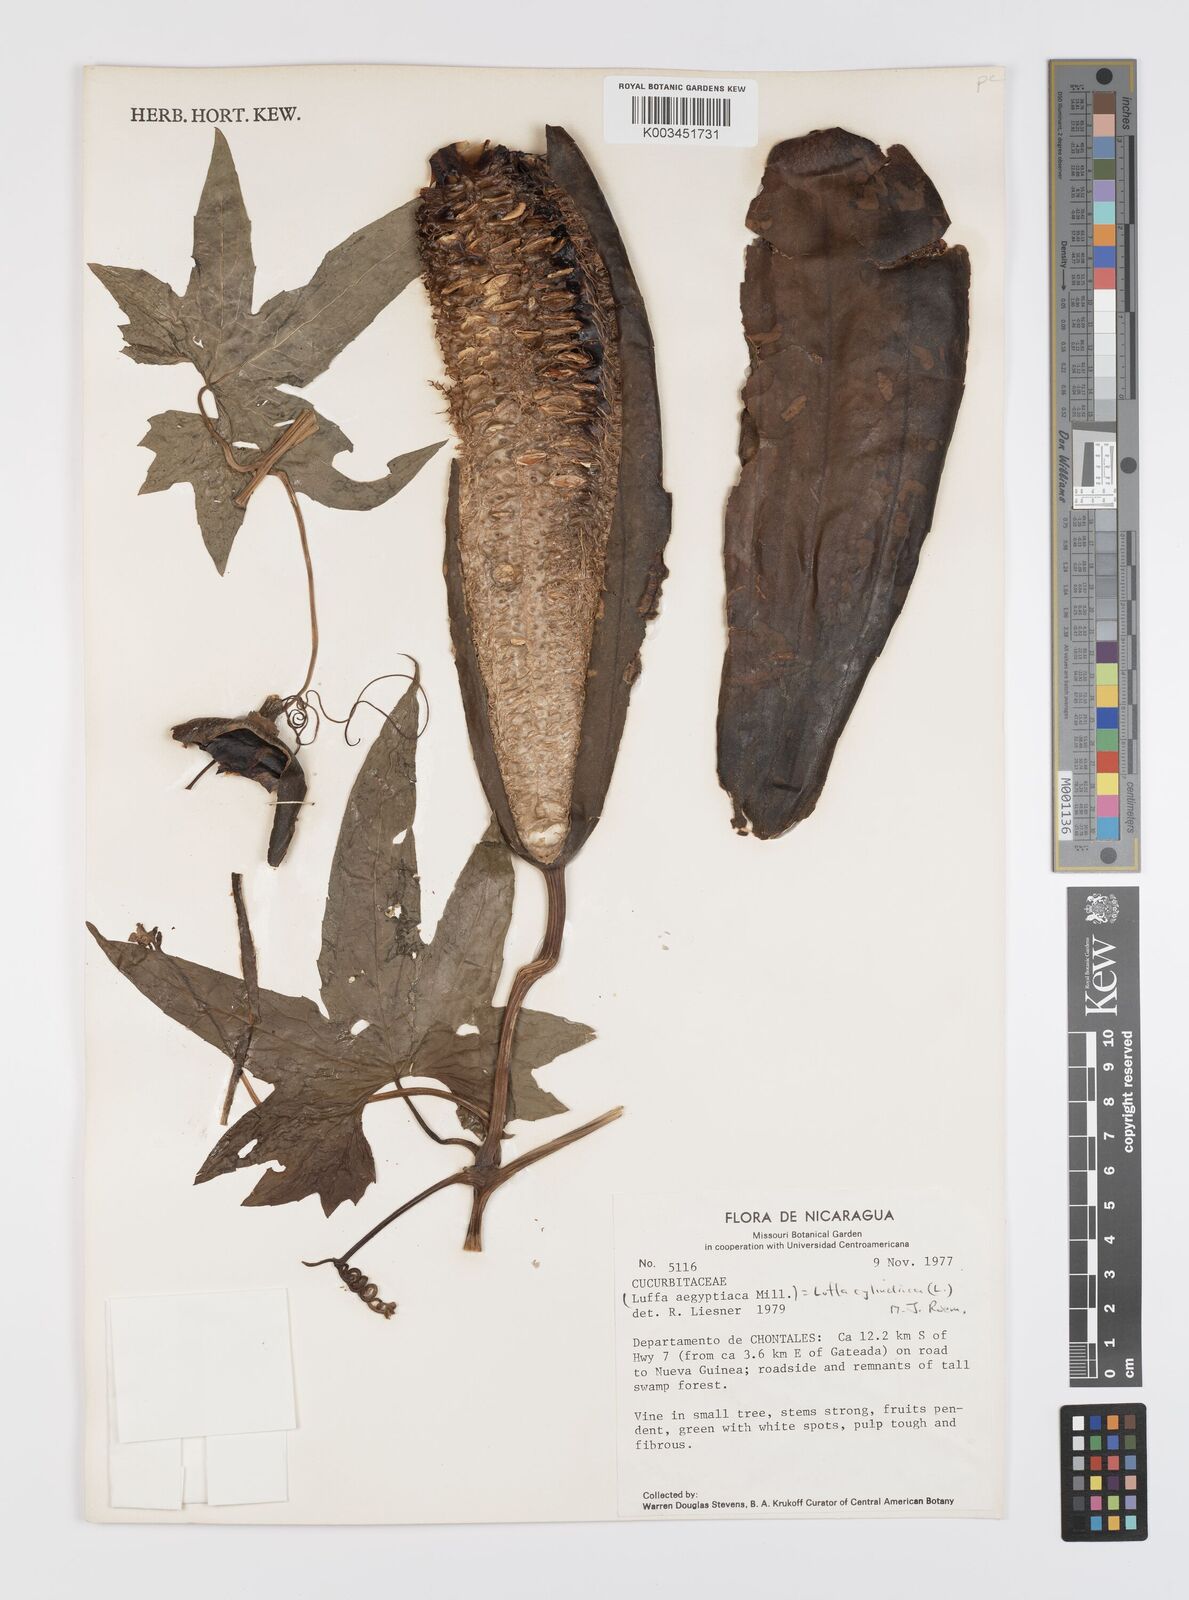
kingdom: Plantae
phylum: Tracheophyta
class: Magnoliopsida
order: Cucurbitales
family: Cucurbitaceae
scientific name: Cucurbitaceae
